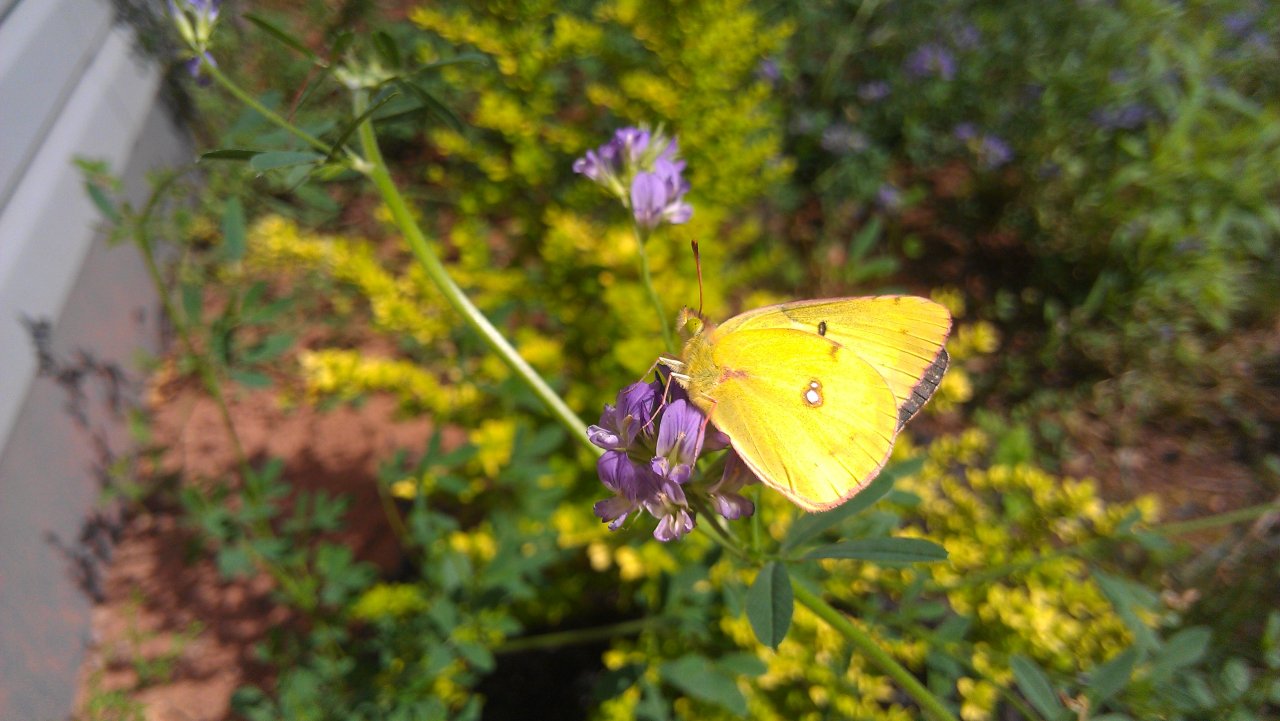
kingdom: Animalia
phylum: Arthropoda
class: Insecta
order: Lepidoptera
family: Pieridae
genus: Colias
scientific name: Colias philodice
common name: Clouded Sulphur
